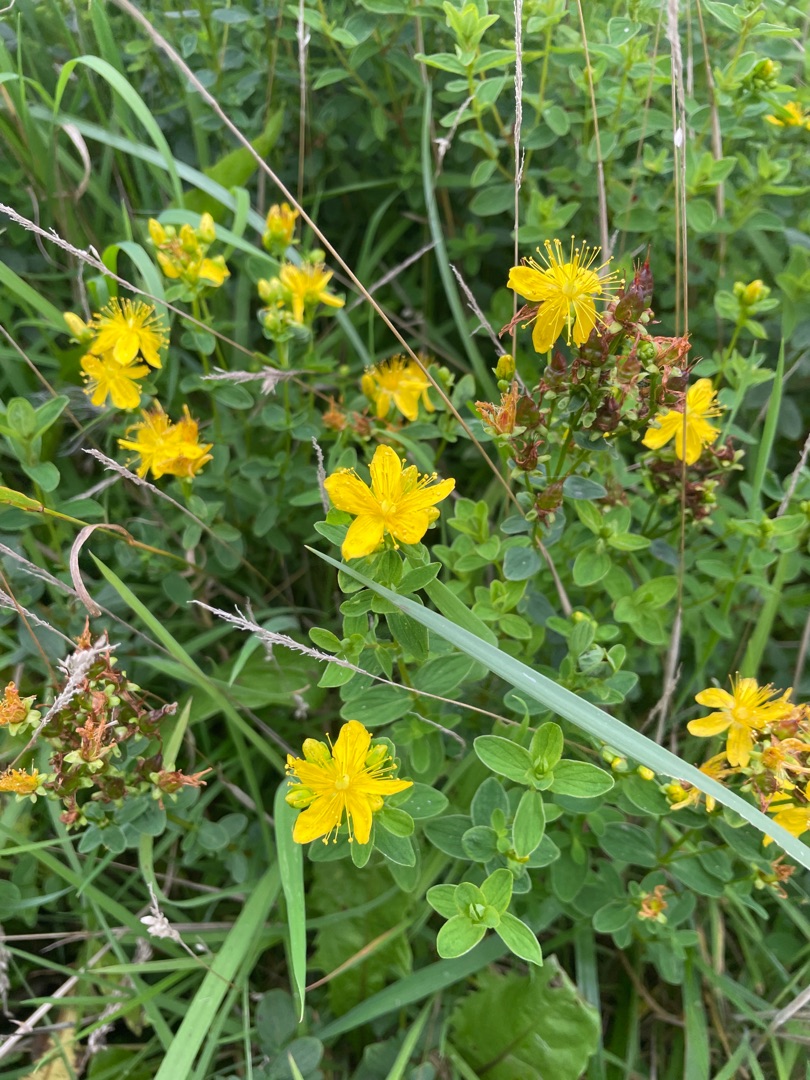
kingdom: Plantae
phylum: Tracheophyta
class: Magnoliopsida
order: Malpighiales
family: Hypericaceae
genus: Hypericum
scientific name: Hypericum perforatum
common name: Prikbladet perikon
